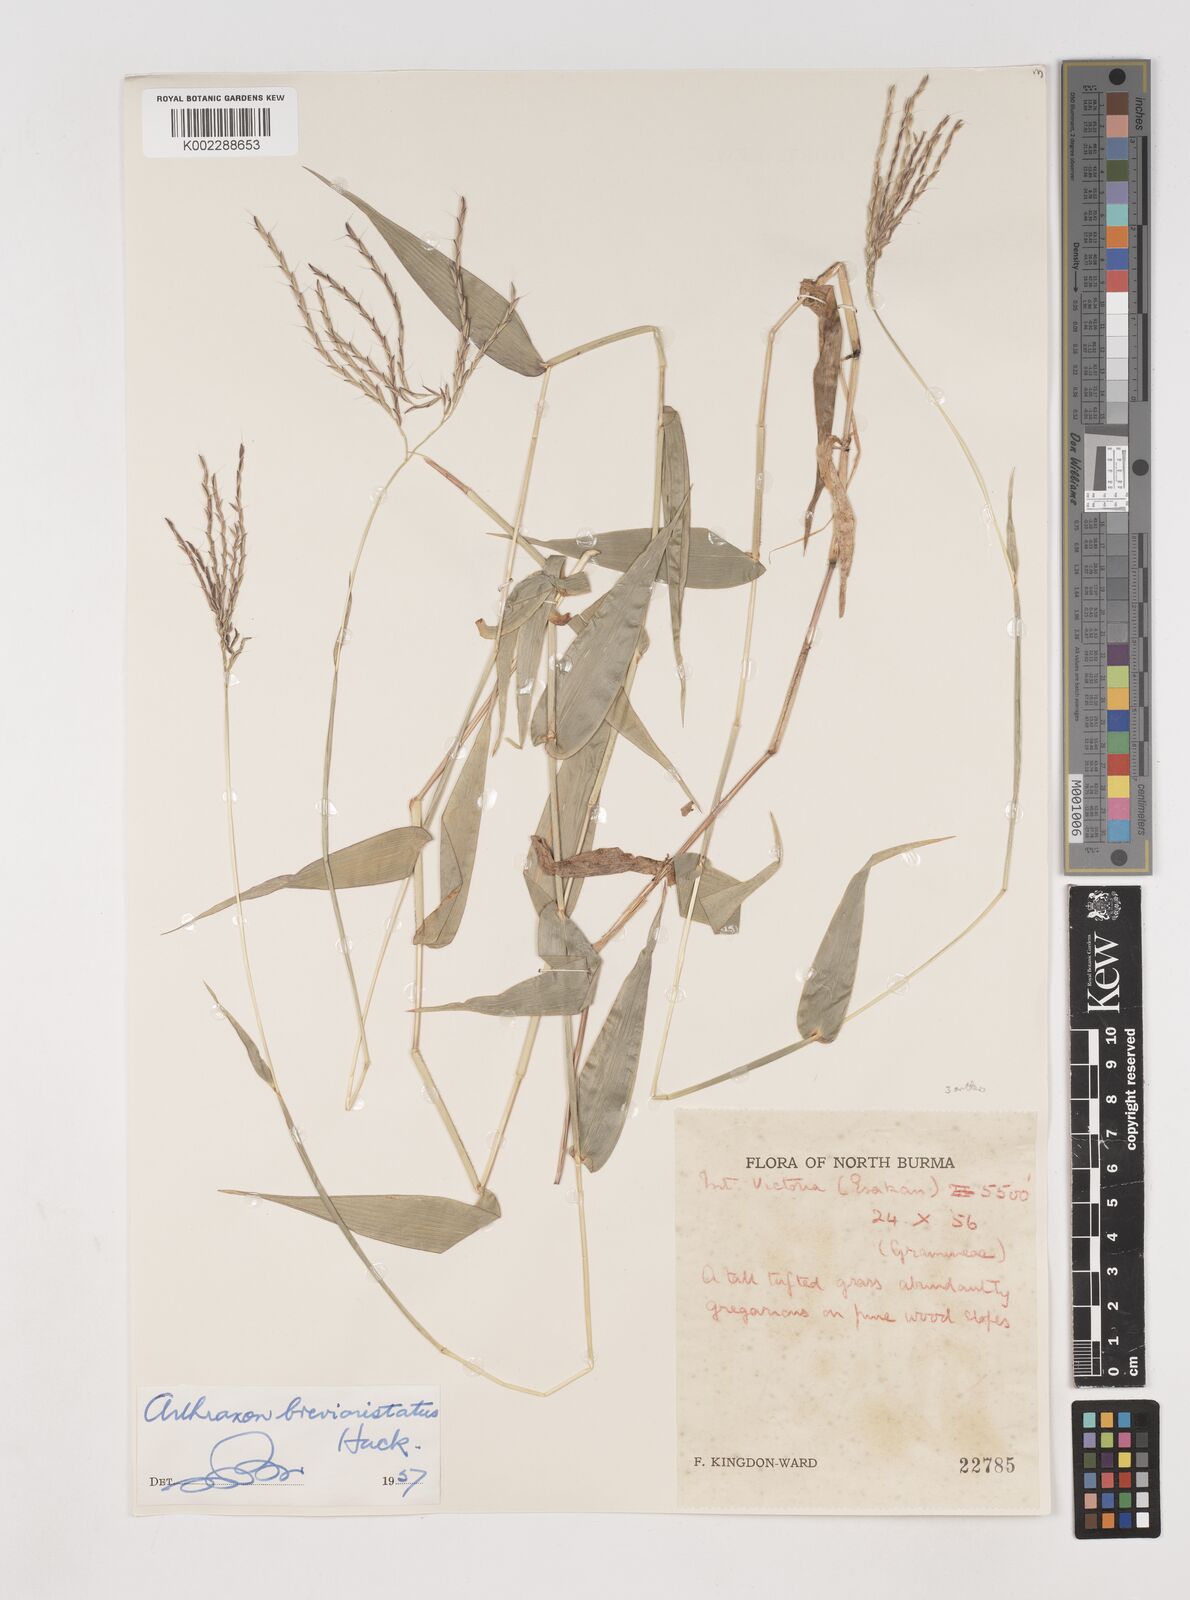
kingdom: Plantae
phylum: Tracheophyta
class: Liliopsida
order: Poales
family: Poaceae
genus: Arthraxon
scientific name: Arthraxon typicus
